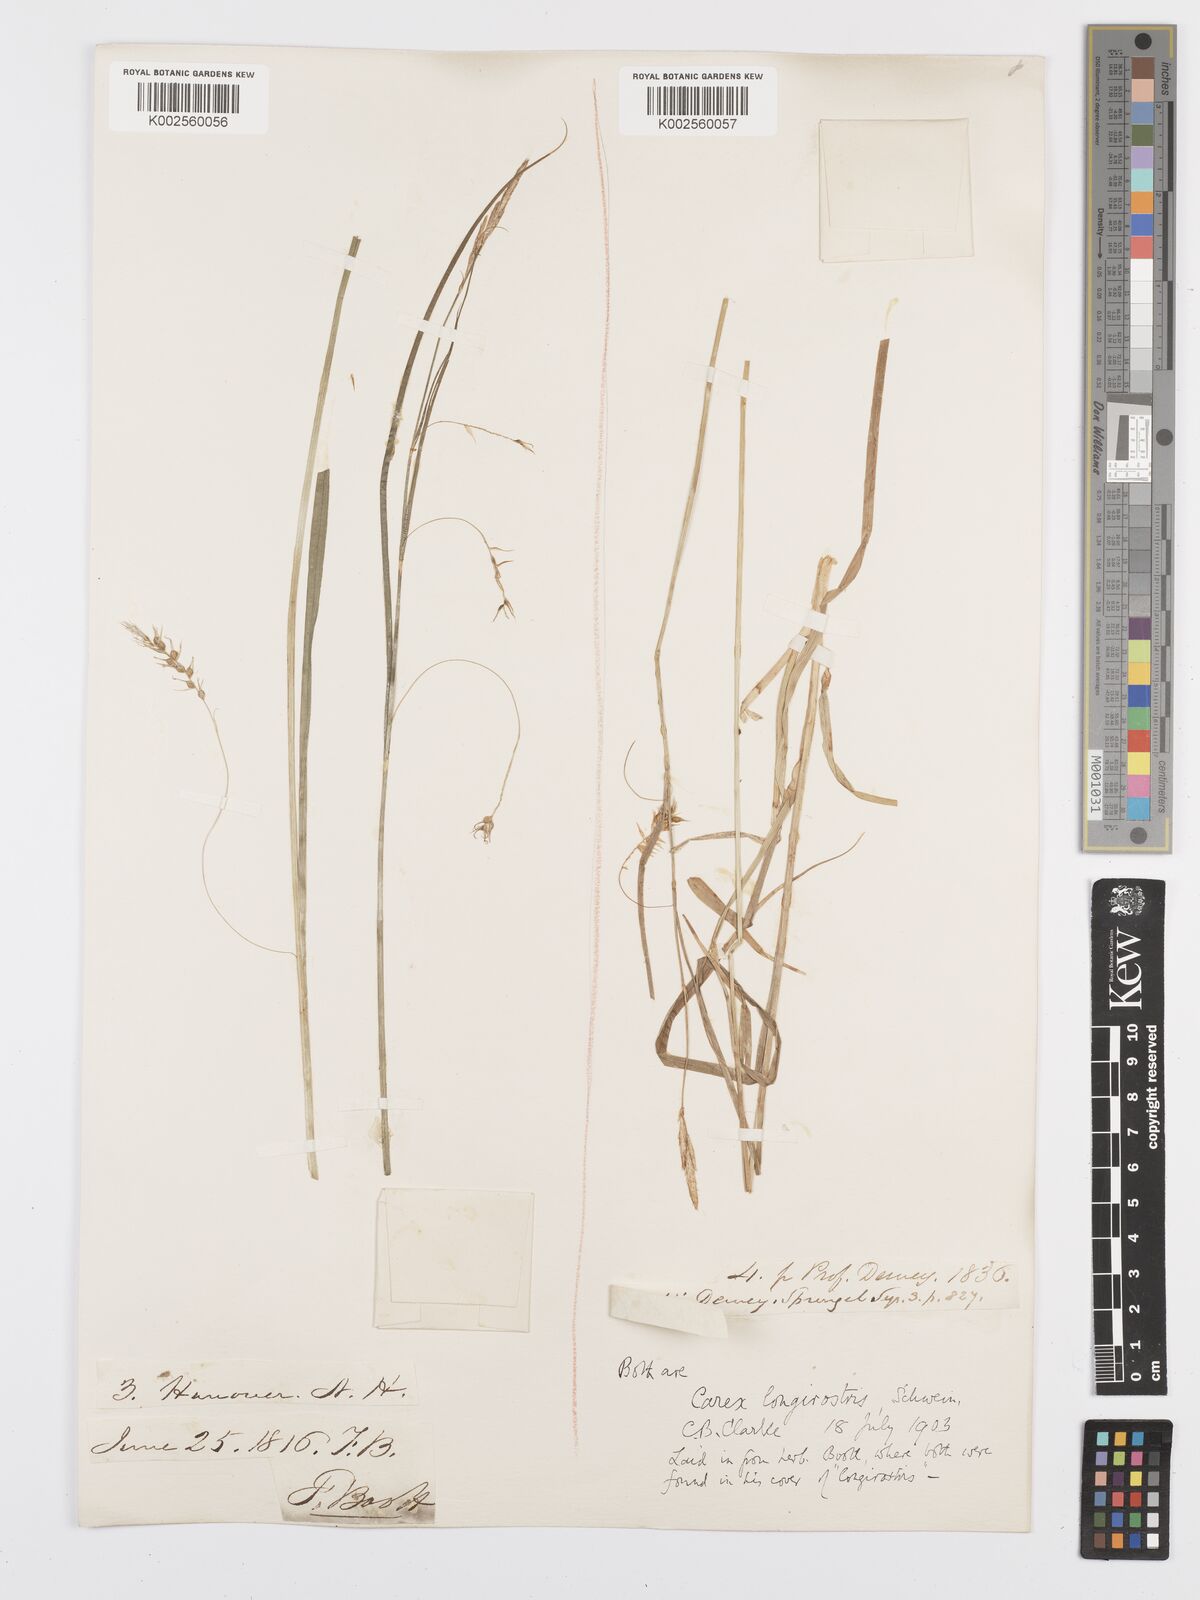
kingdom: Plantae
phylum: Tracheophyta
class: Liliopsida
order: Poales
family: Cyperaceae
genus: Carex
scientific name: Carex sprengelii
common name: Long-beaked sedge
